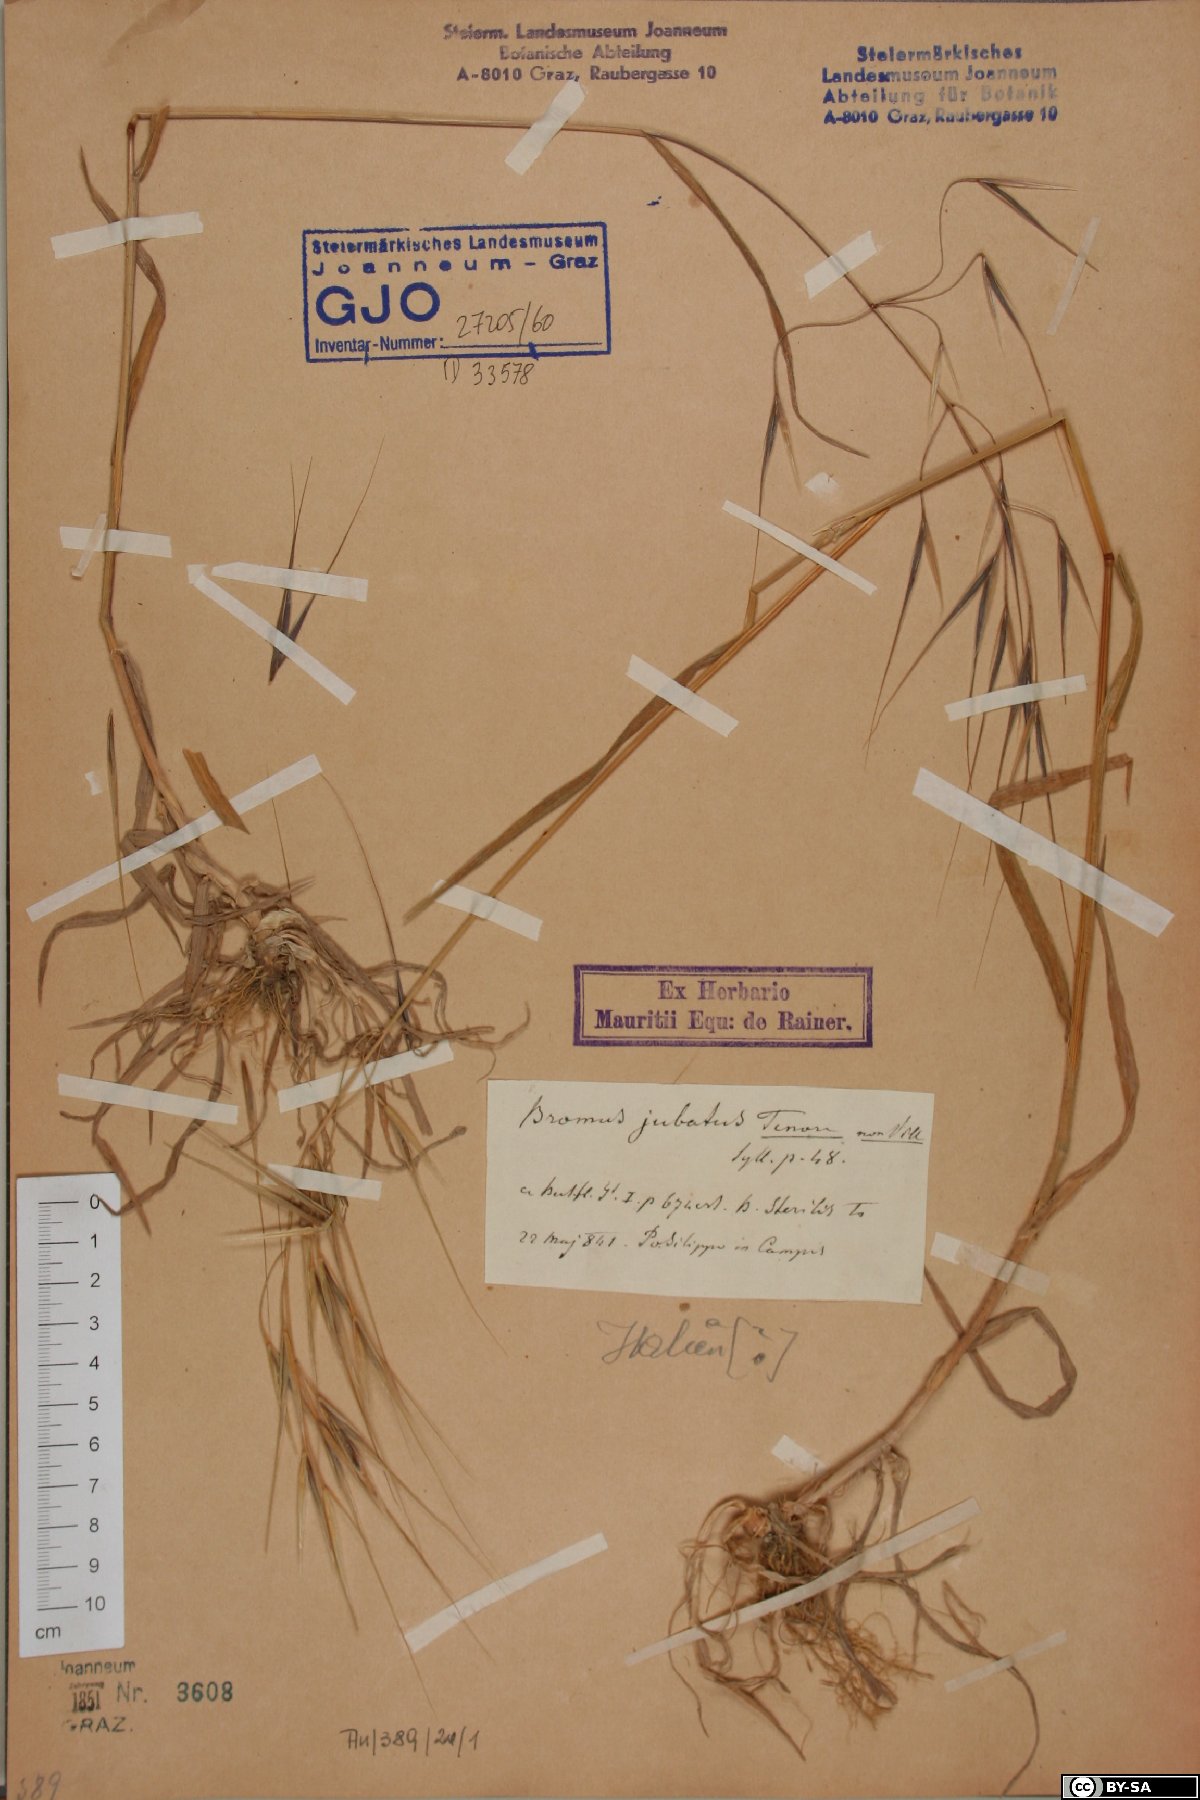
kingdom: Plantae
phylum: Tracheophyta
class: Liliopsida
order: Poales
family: Poaceae
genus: Bromus
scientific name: Bromus sterilis
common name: Poverty brome
